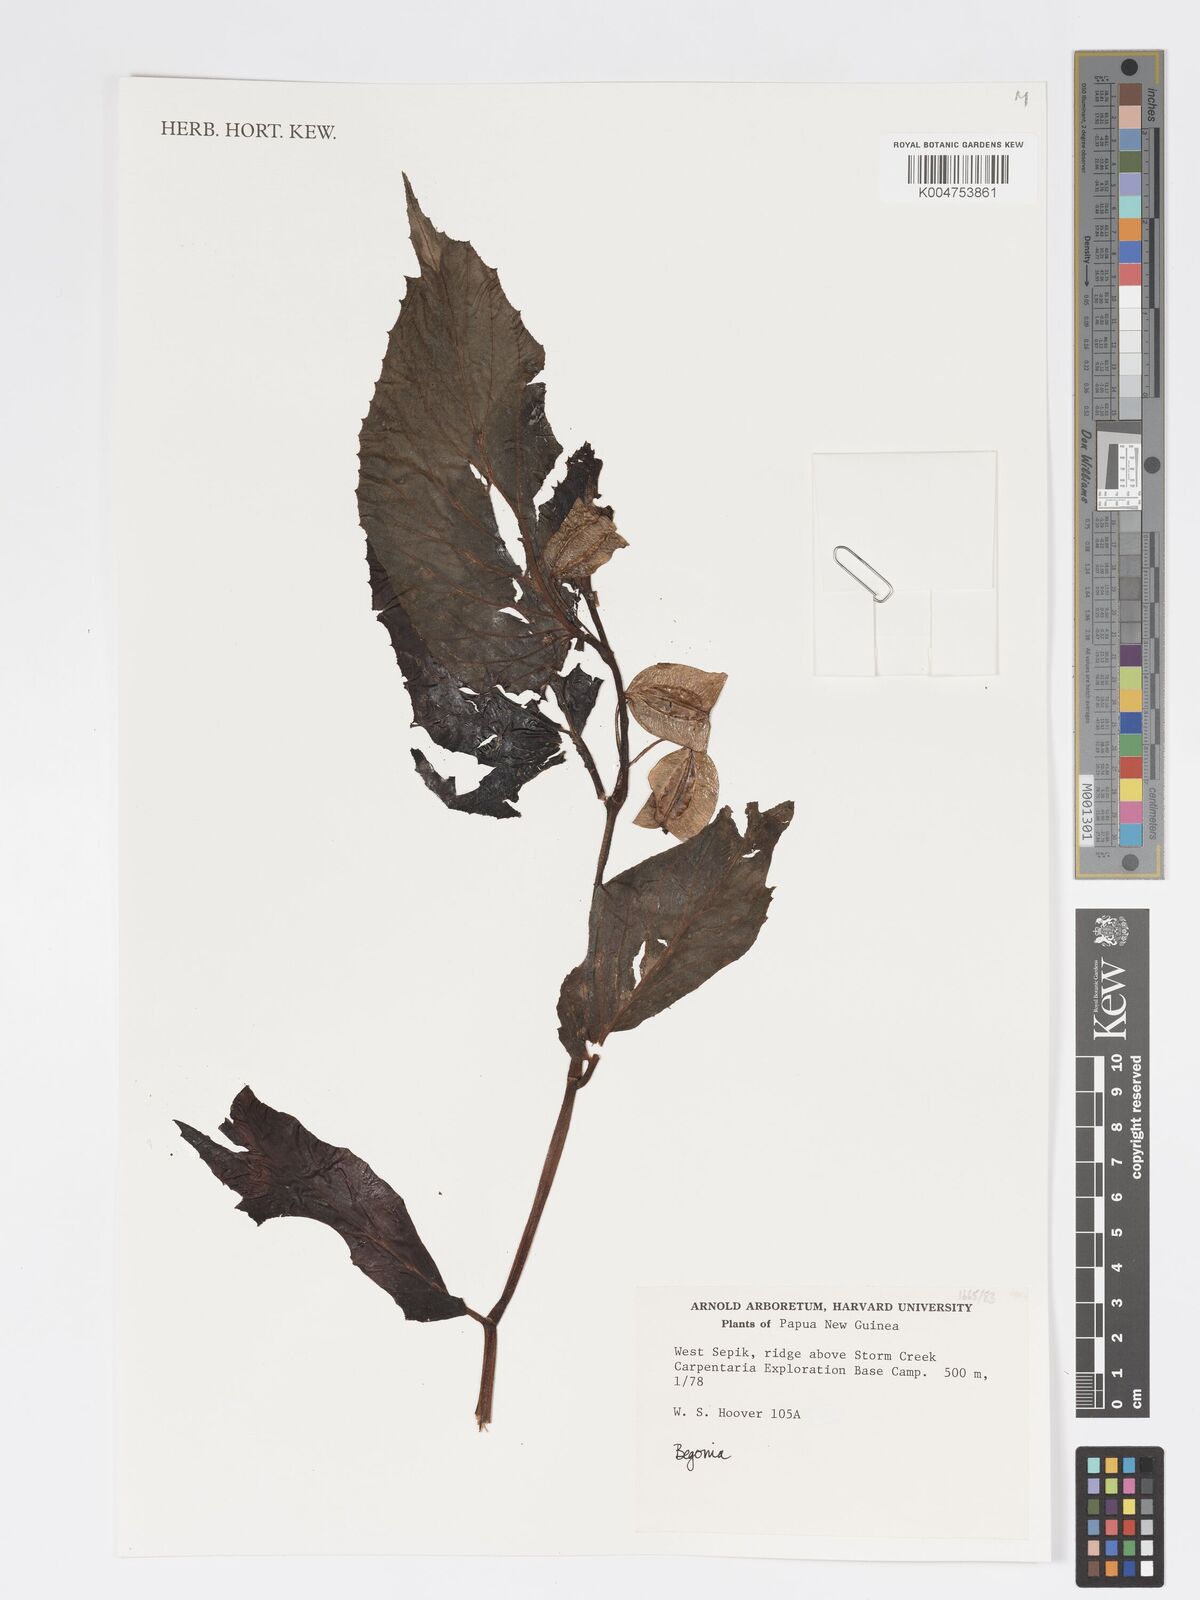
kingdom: Plantae
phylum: Tracheophyta
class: Magnoliopsida
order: Cucurbitales
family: Begoniaceae
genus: Begonia
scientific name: Begonia
